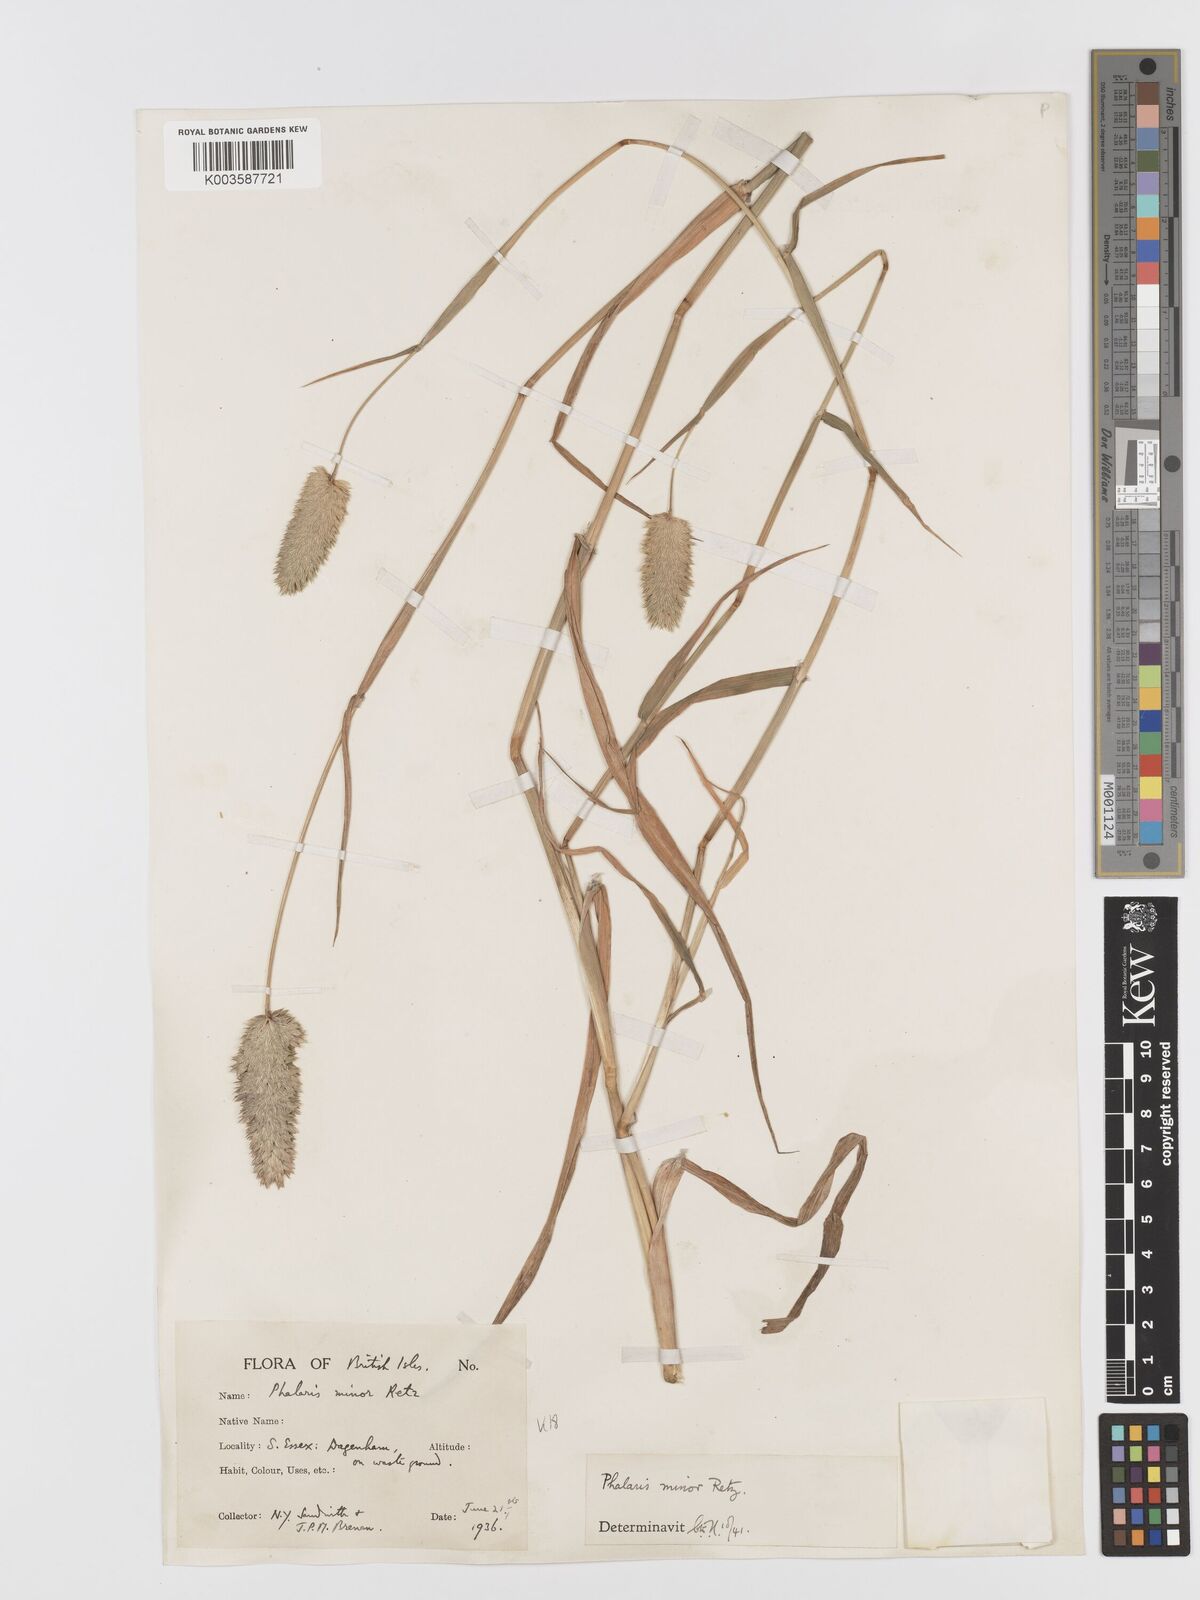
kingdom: Plantae
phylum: Tracheophyta
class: Liliopsida
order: Poales
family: Poaceae
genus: Phalaris
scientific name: Phalaris minor
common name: Littleseed canarygrass
